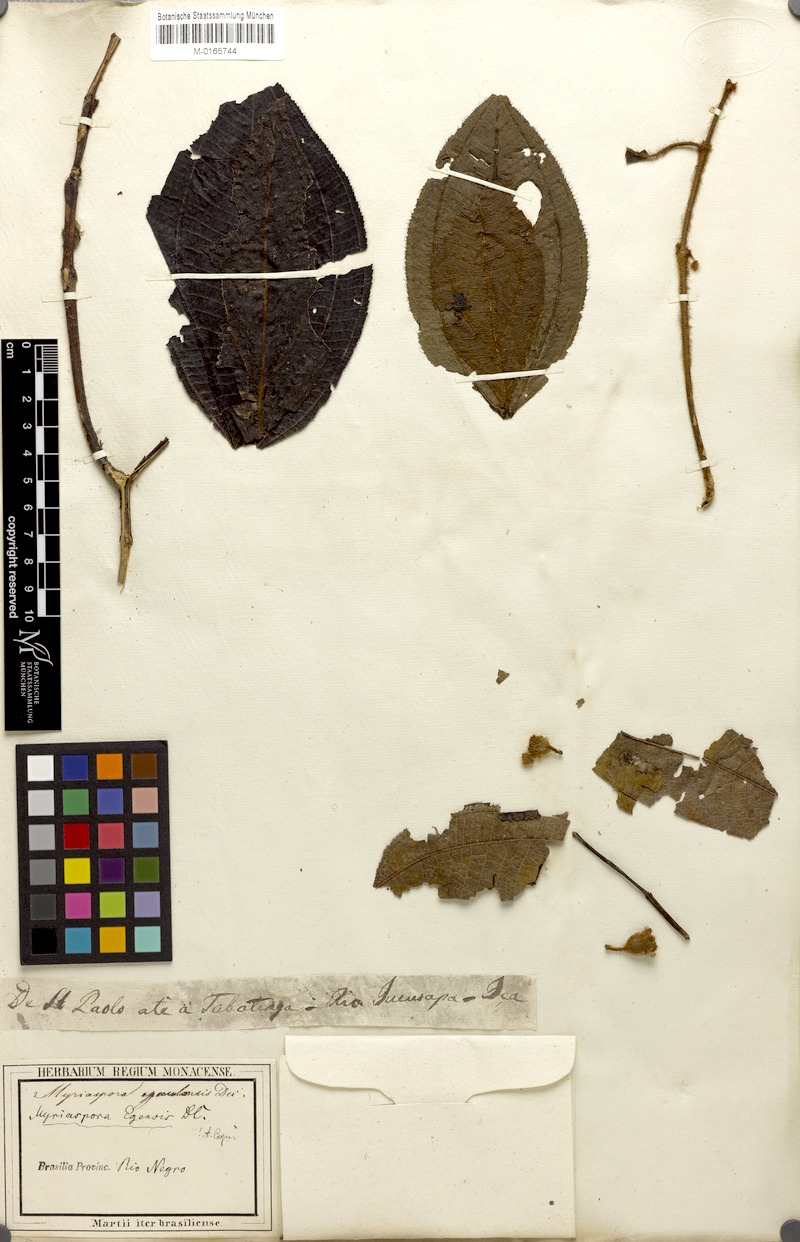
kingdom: Plantae
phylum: Tracheophyta
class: Magnoliopsida
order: Myrtales
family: Melastomataceae
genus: Bellucia
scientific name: Bellucia egensis
